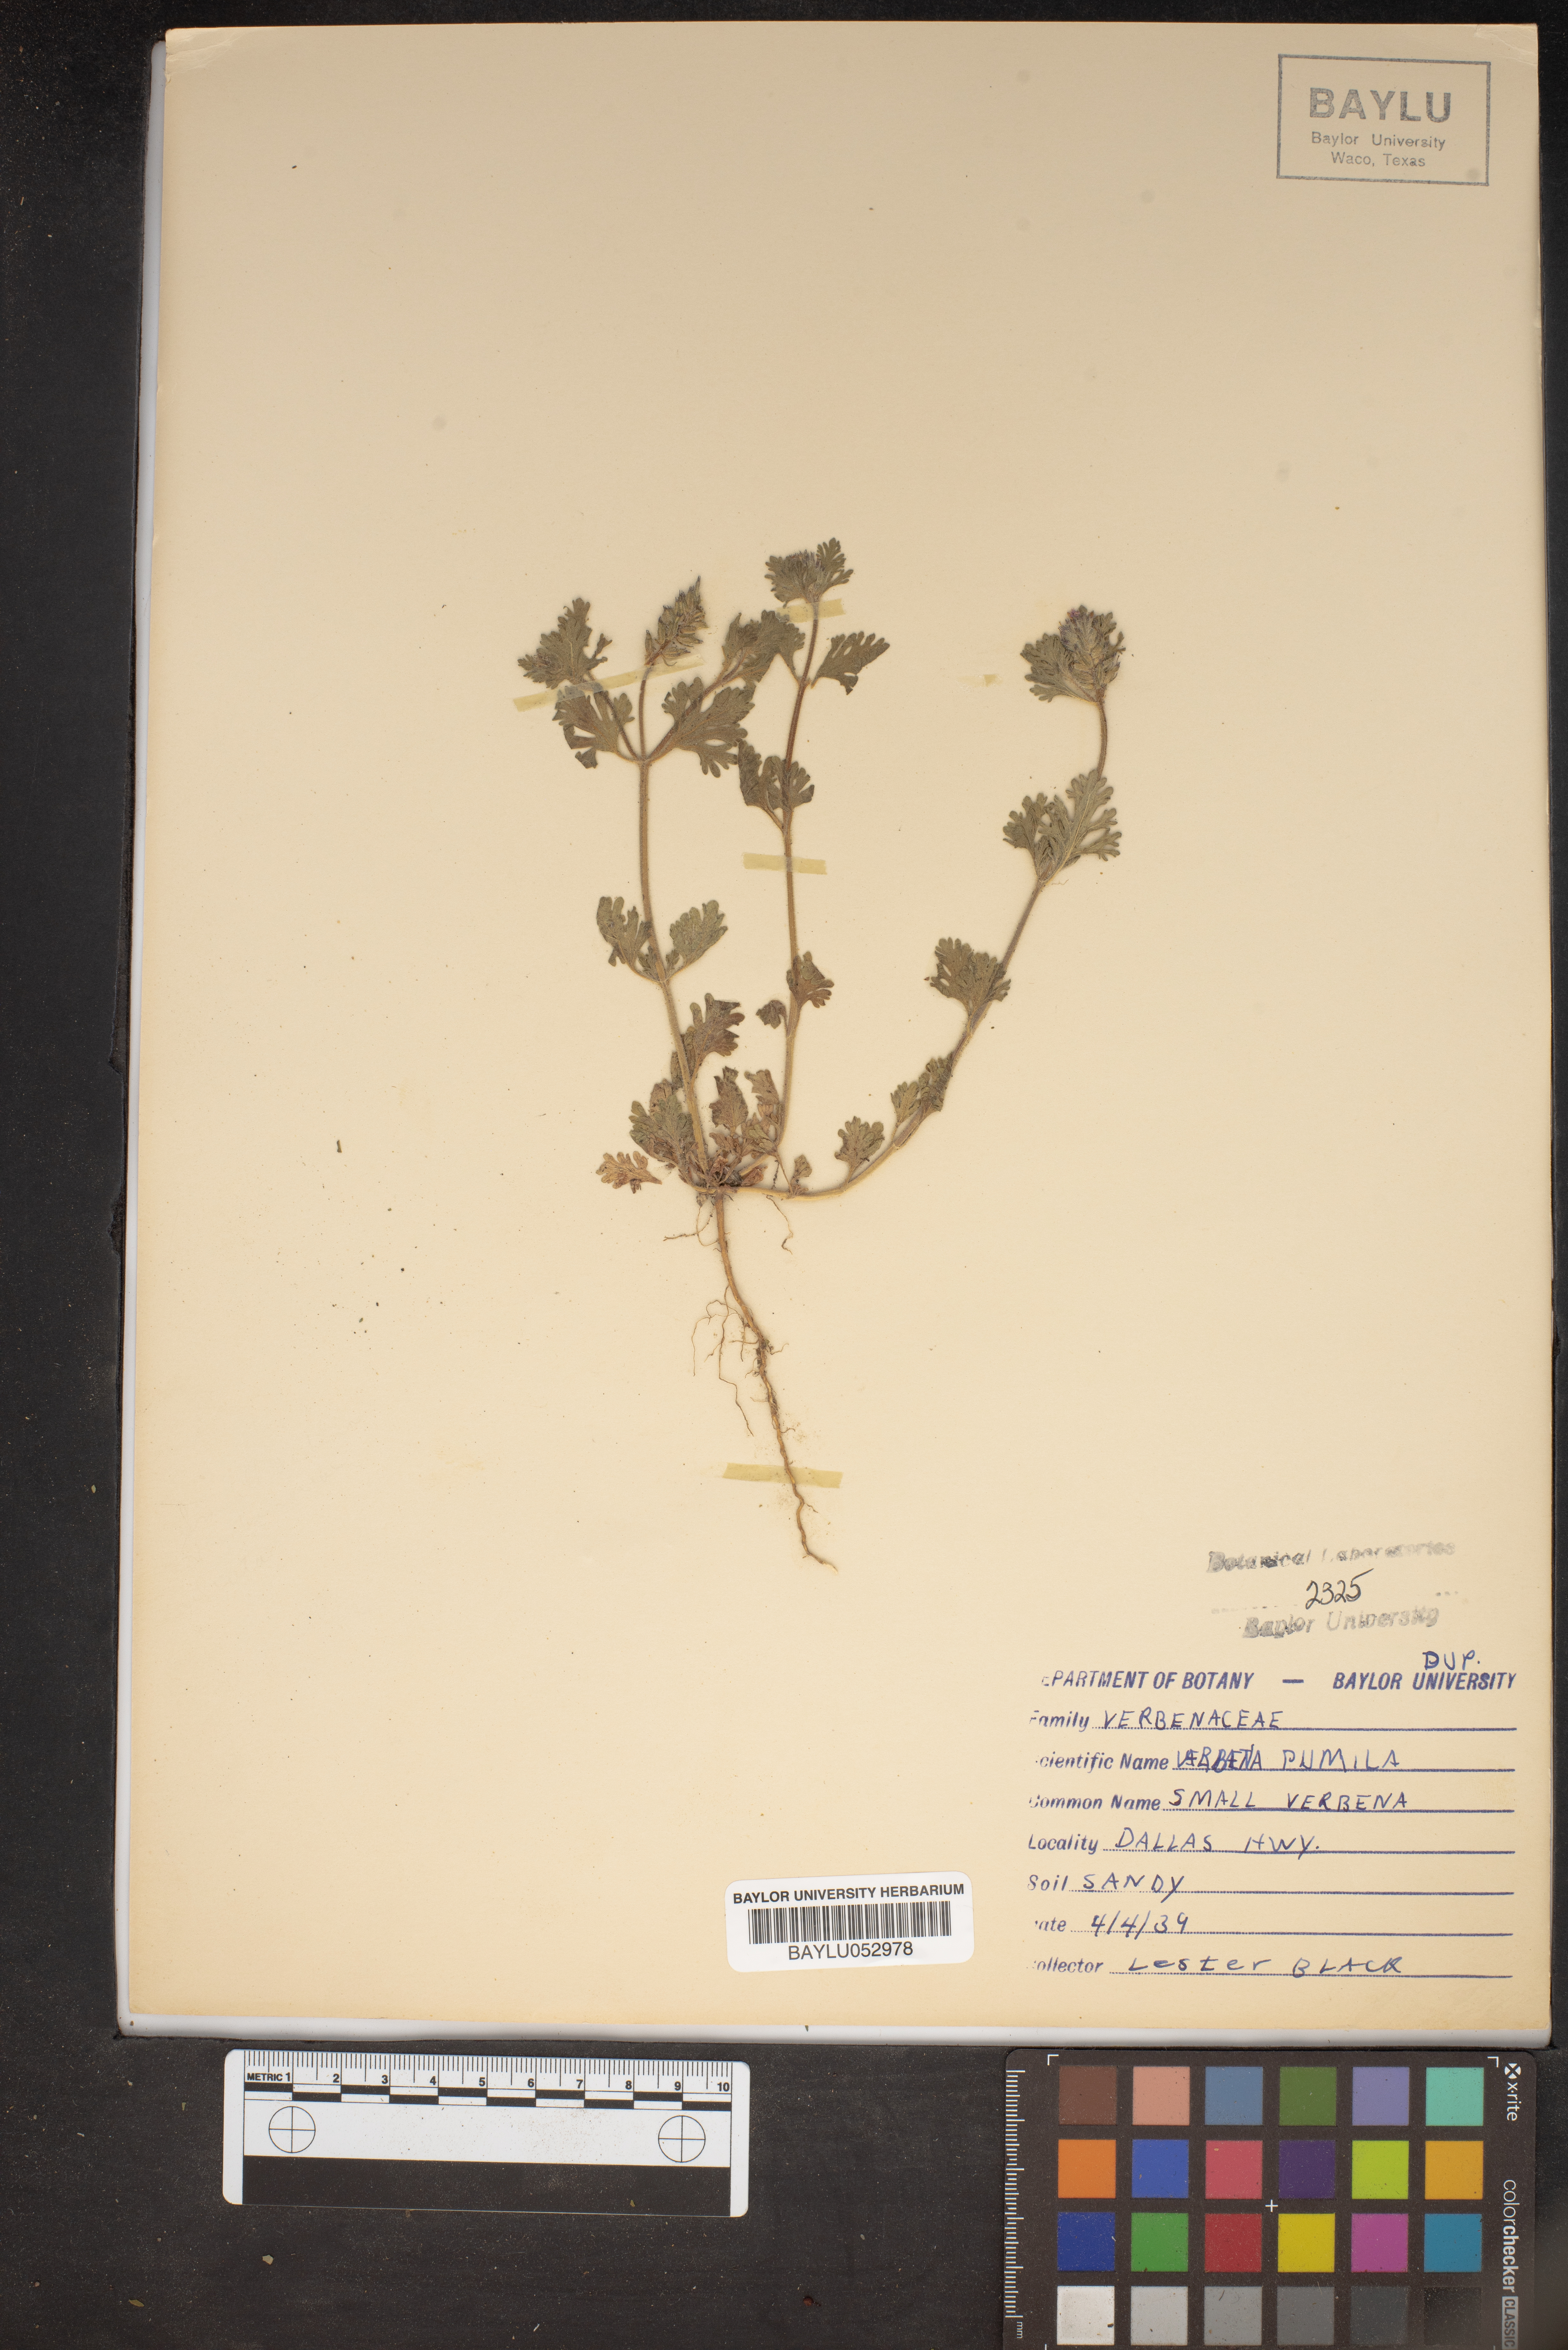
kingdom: Plantae
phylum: Tracheophyta
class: Magnoliopsida
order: Lamiales
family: Verbenaceae
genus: Verbena
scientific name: Verbena pumila
